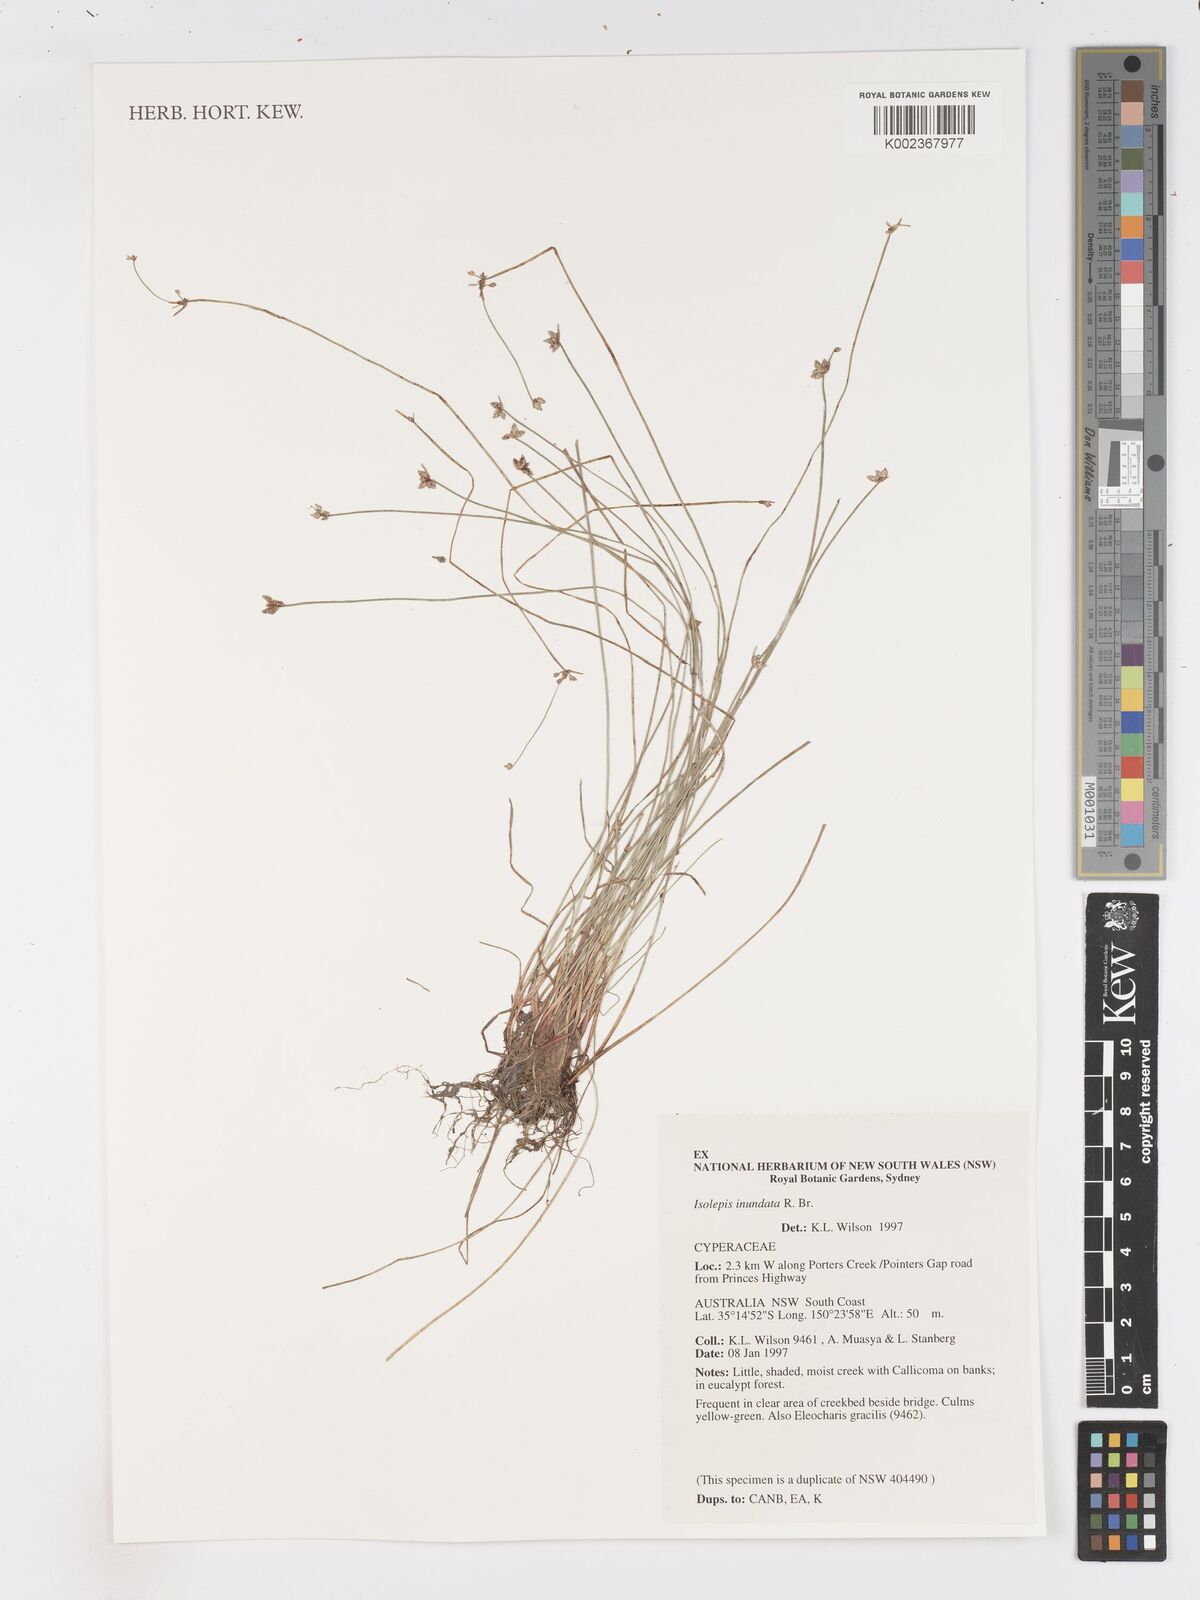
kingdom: Plantae
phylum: Tracheophyta
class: Liliopsida
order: Poales
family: Cyperaceae
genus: Isolepis
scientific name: Isolepis inundata
